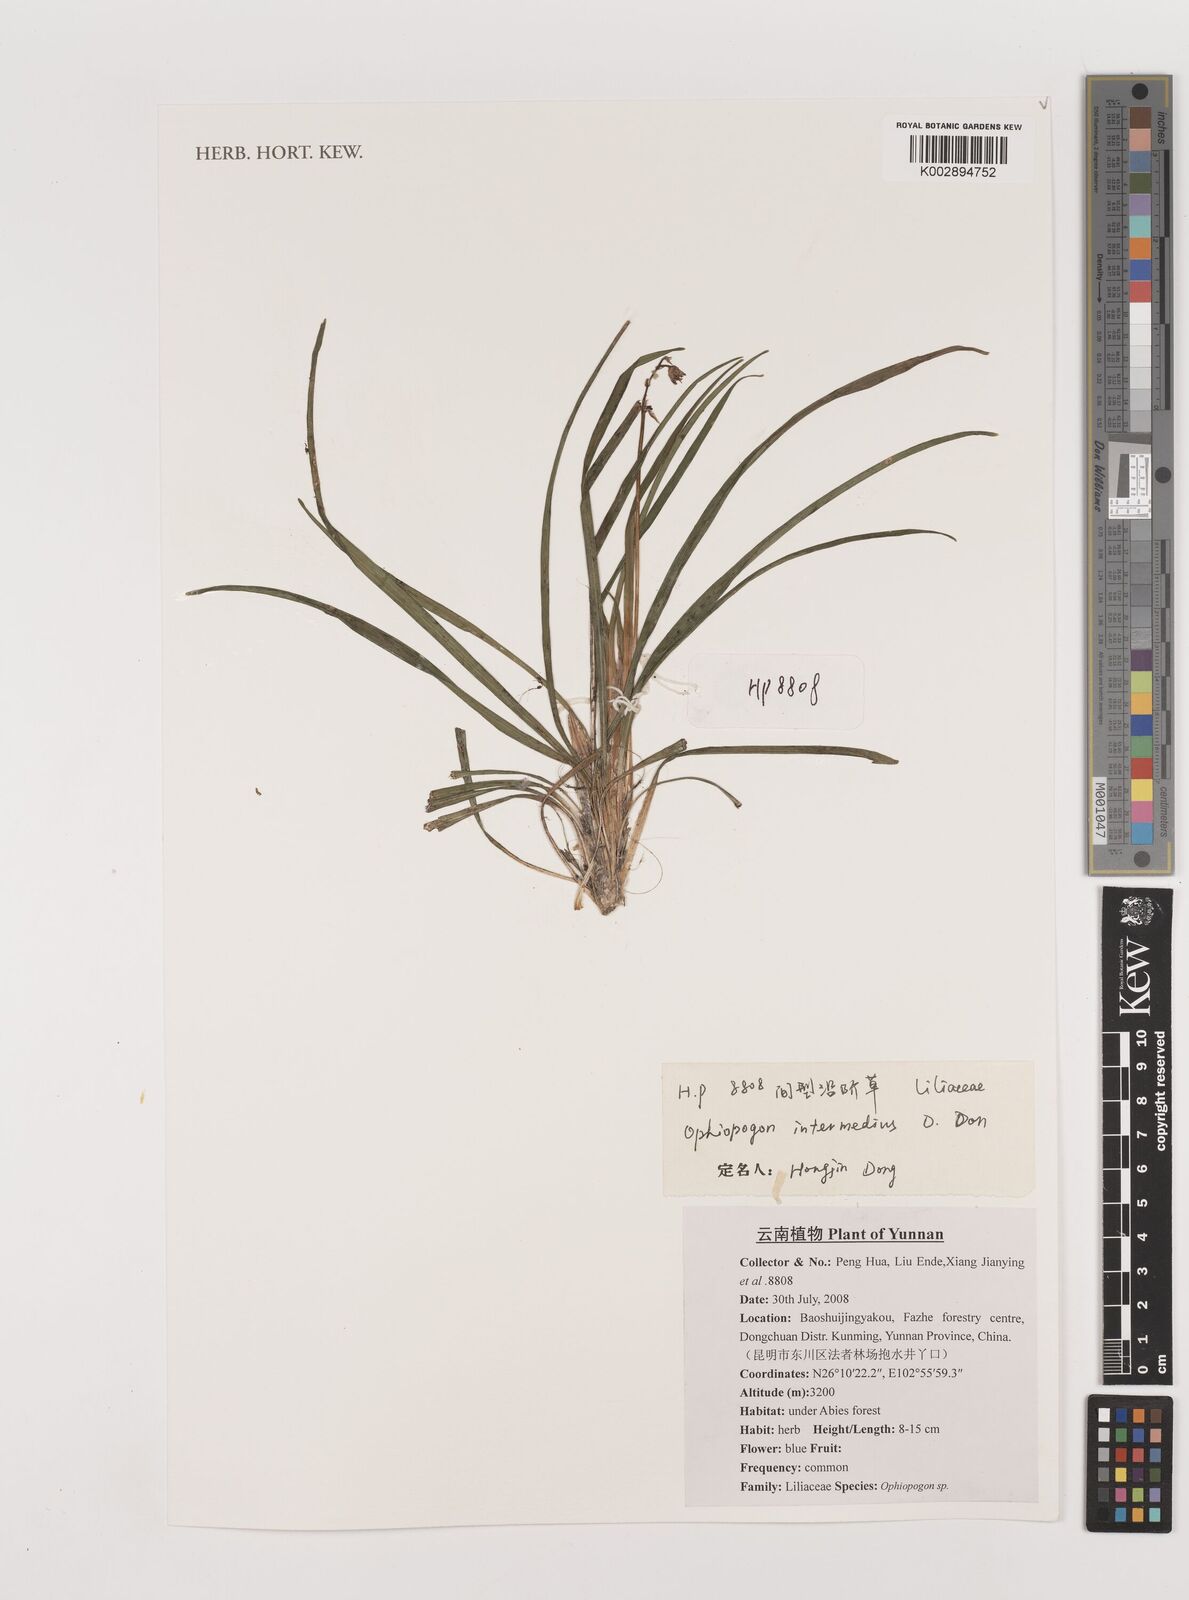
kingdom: Plantae
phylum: Tracheophyta
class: Liliopsida
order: Asparagales
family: Asparagaceae
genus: Ophiopogon
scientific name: Ophiopogon intermedius
